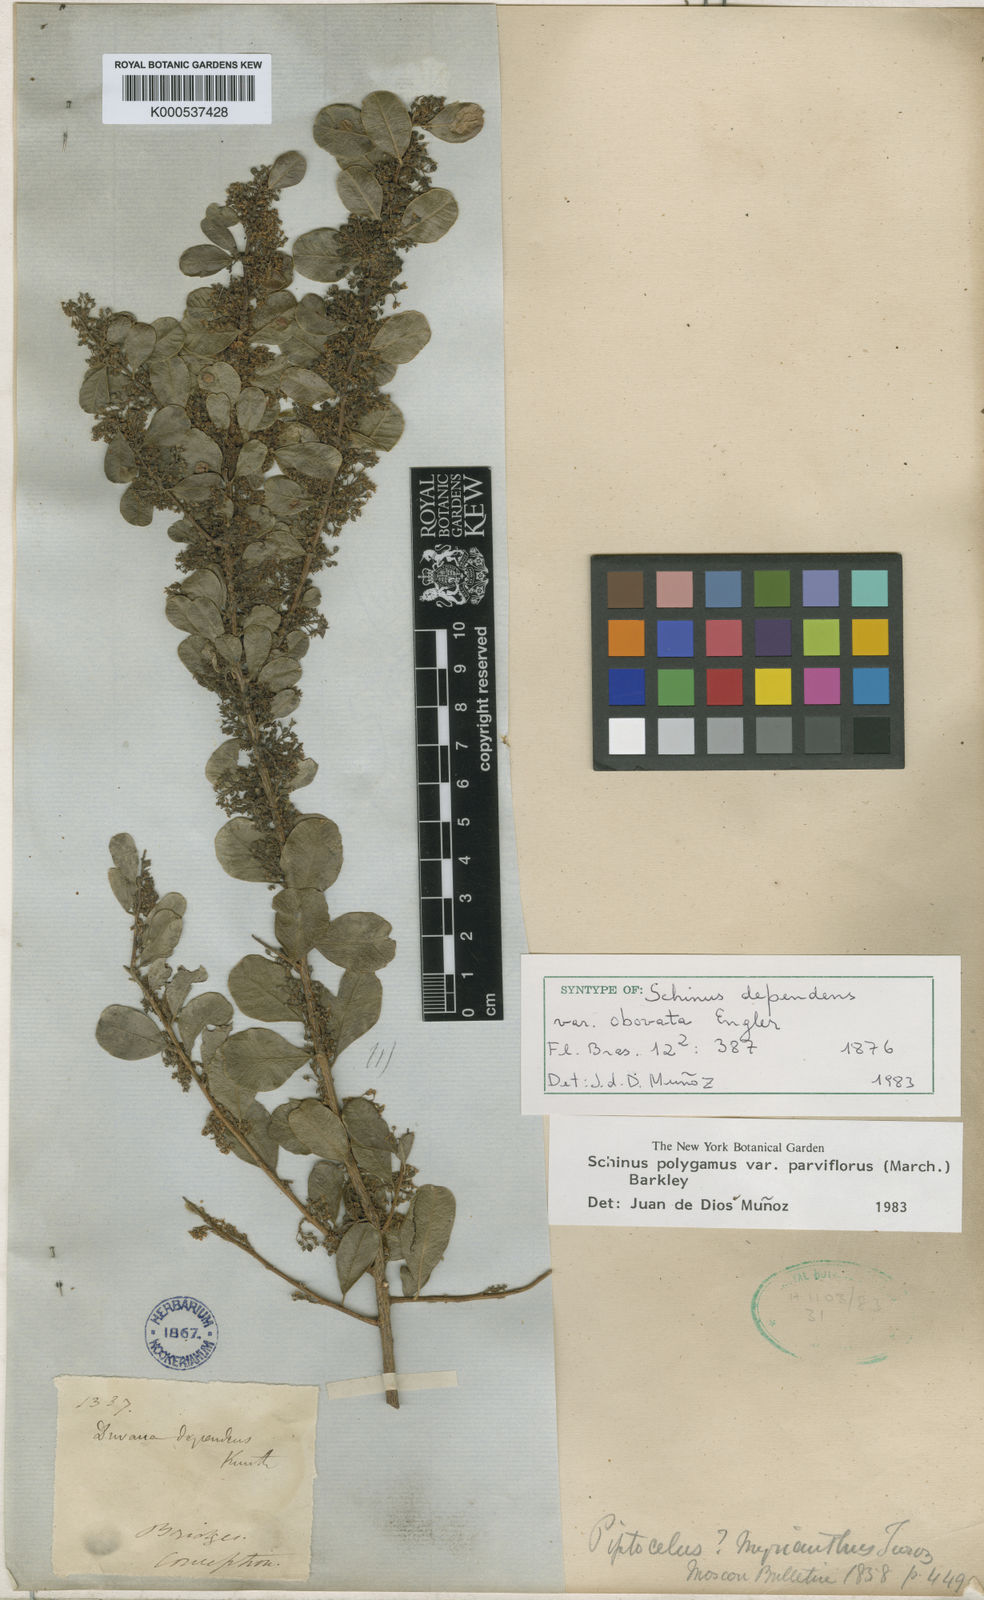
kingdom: Plantae
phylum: Tracheophyta
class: Magnoliopsida
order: Sapindales
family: Anacardiaceae
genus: Schinus
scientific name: Schinus polygama
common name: Hardee peppertree
